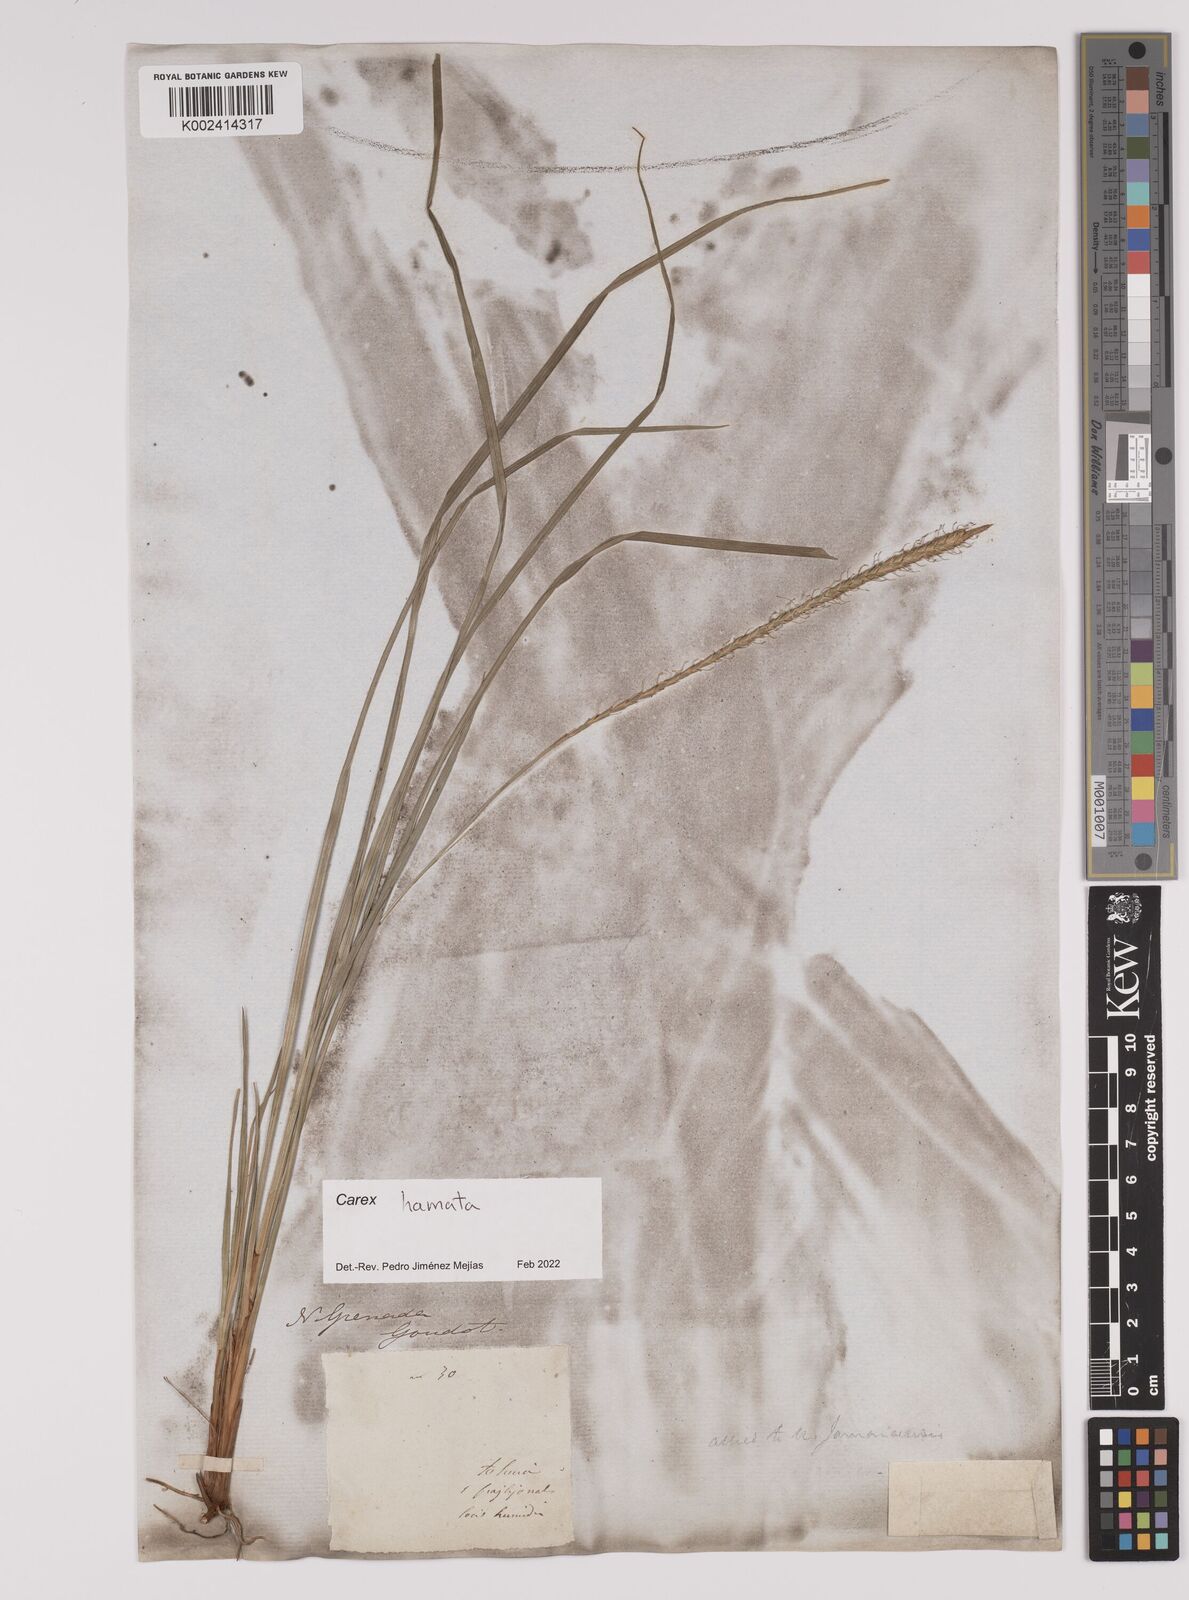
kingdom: Plantae
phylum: Tracheophyta
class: Liliopsida
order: Poales
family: Cyperaceae
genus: Carex
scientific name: Carex hamata
